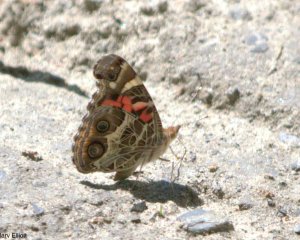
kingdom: Animalia
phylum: Arthropoda
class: Insecta
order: Lepidoptera
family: Nymphalidae
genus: Vanessa
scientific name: Vanessa virginiensis
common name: American Lady
